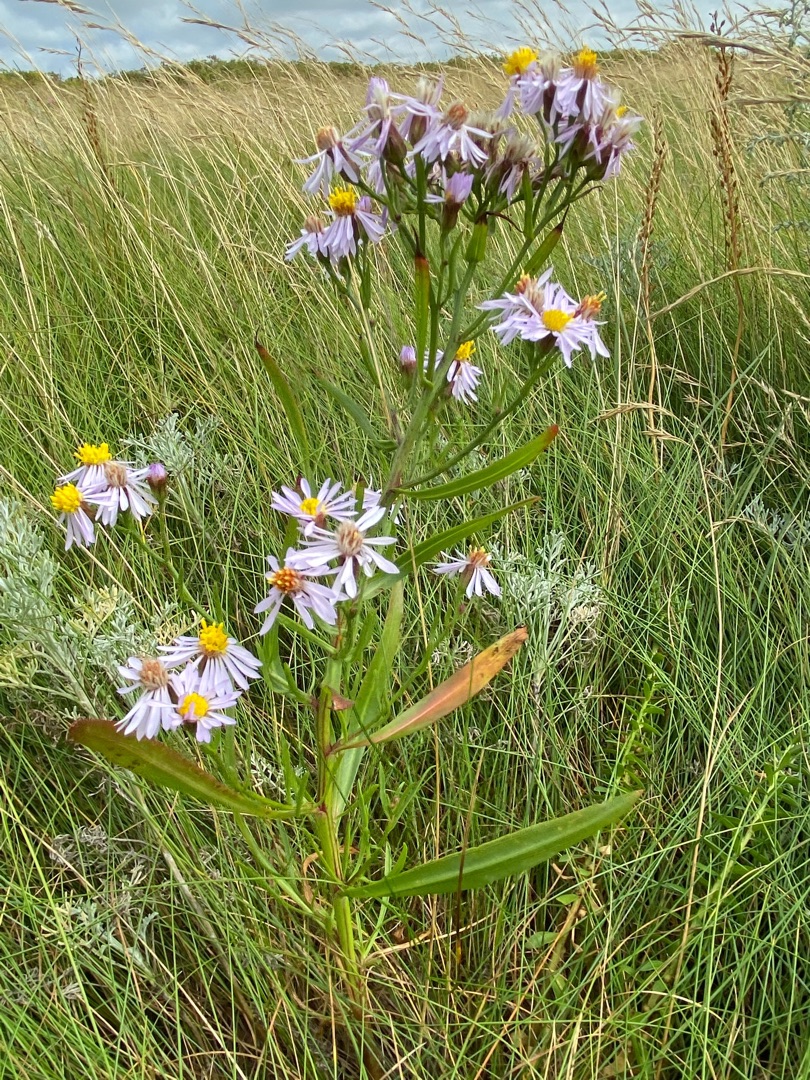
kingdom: Plantae
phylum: Tracheophyta
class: Magnoliopsida
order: Asterales
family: Asteraceae
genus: Tripolium
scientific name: Tripolium pannonicum
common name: Strandasters
